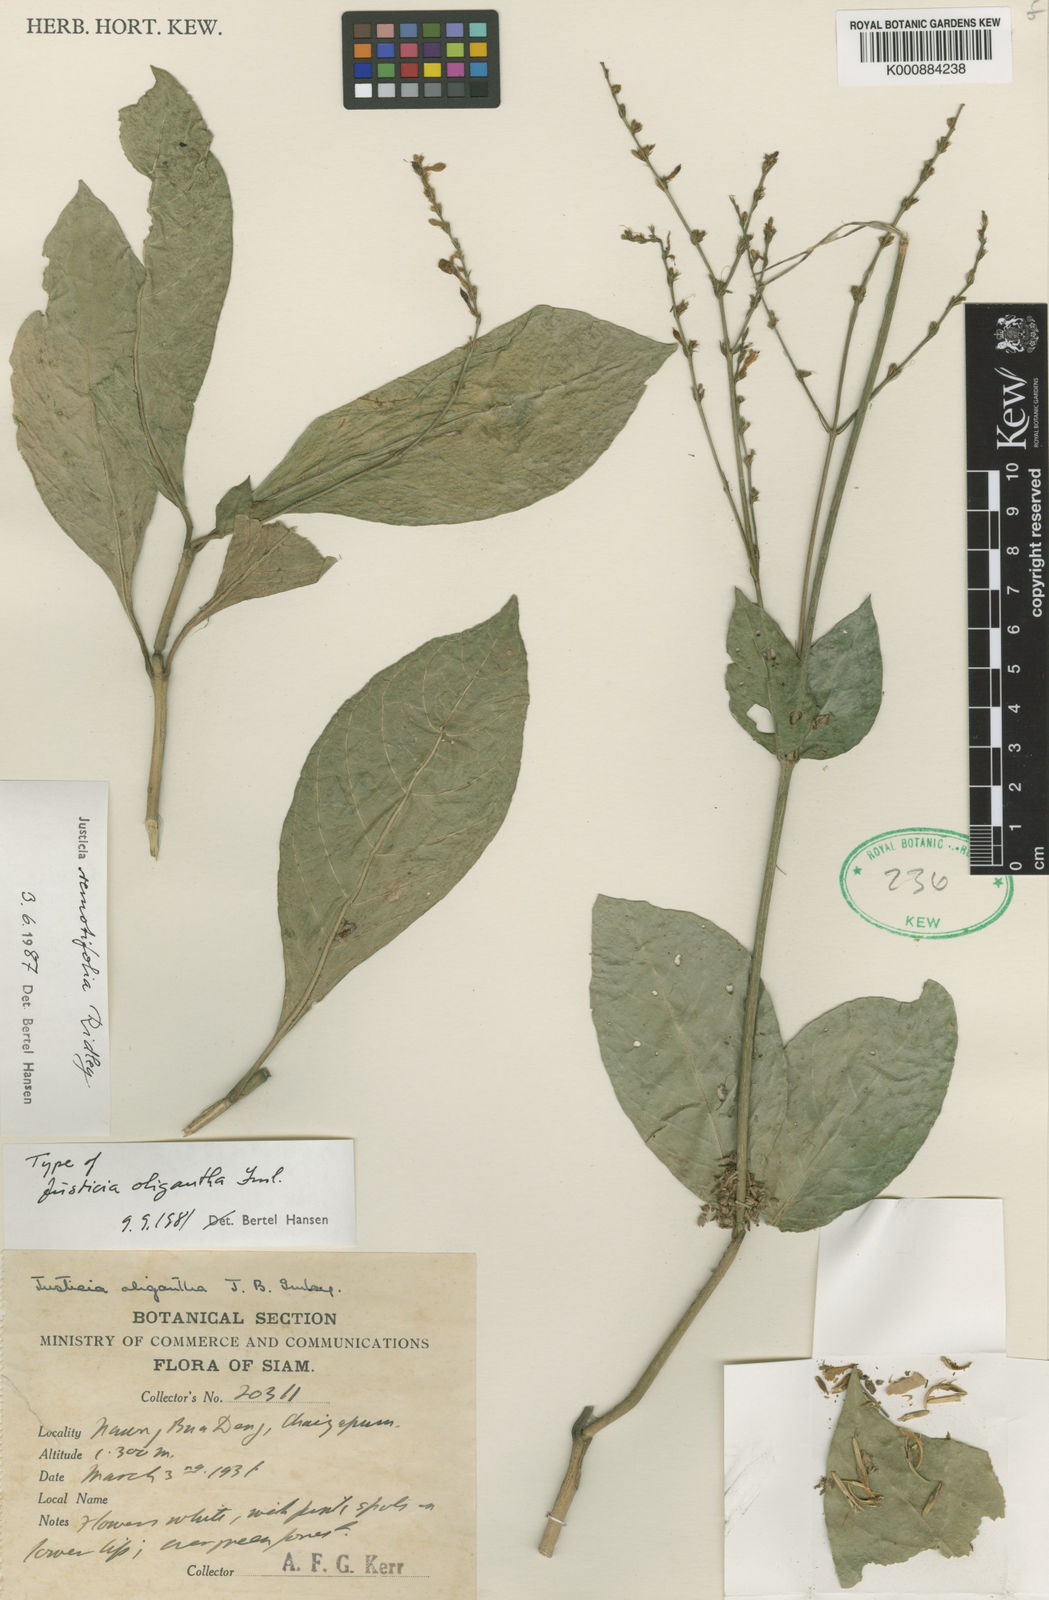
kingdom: Plantae
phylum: Tracheophyta
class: Magnoliopsida
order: Lamiales
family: Acanthaceae
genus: Justicia
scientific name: Justicia remotifolia
